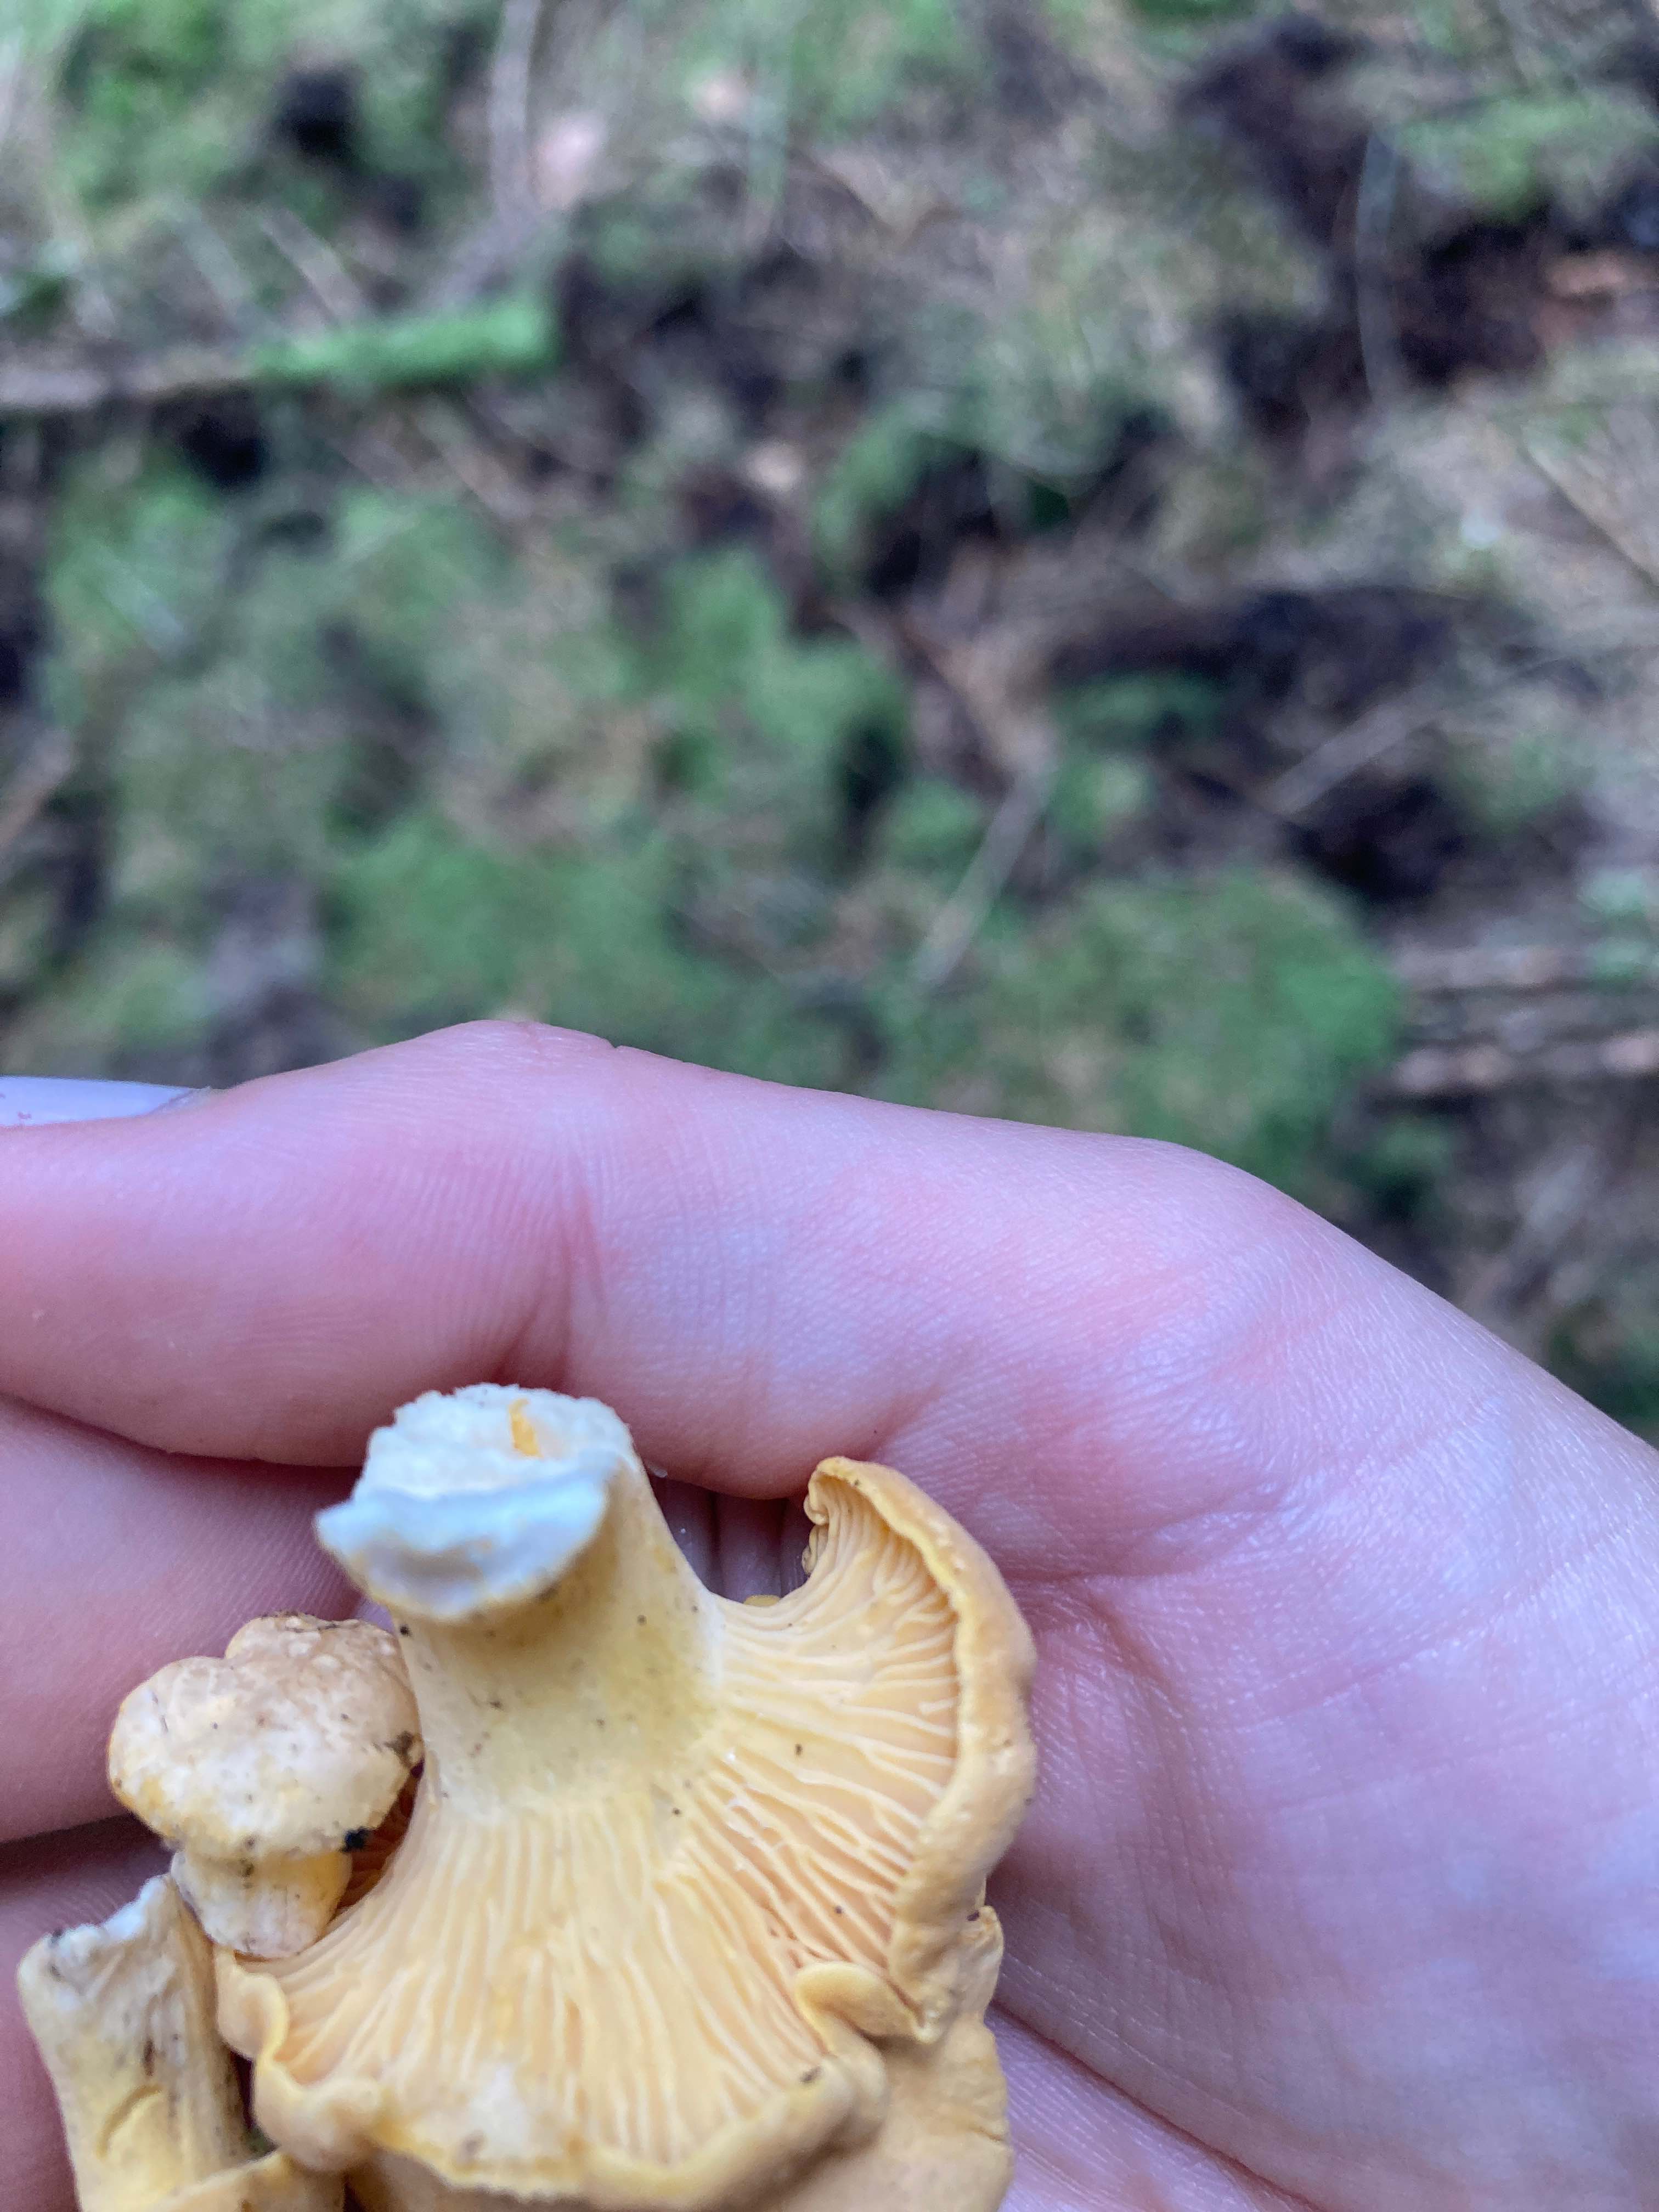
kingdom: Fungi
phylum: Basidiomycota
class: Agaricomycetes
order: Cantharellales
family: Hydnaceae
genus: Cantharellus
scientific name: Cantharellus cibarius
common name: almindelig kantarel
